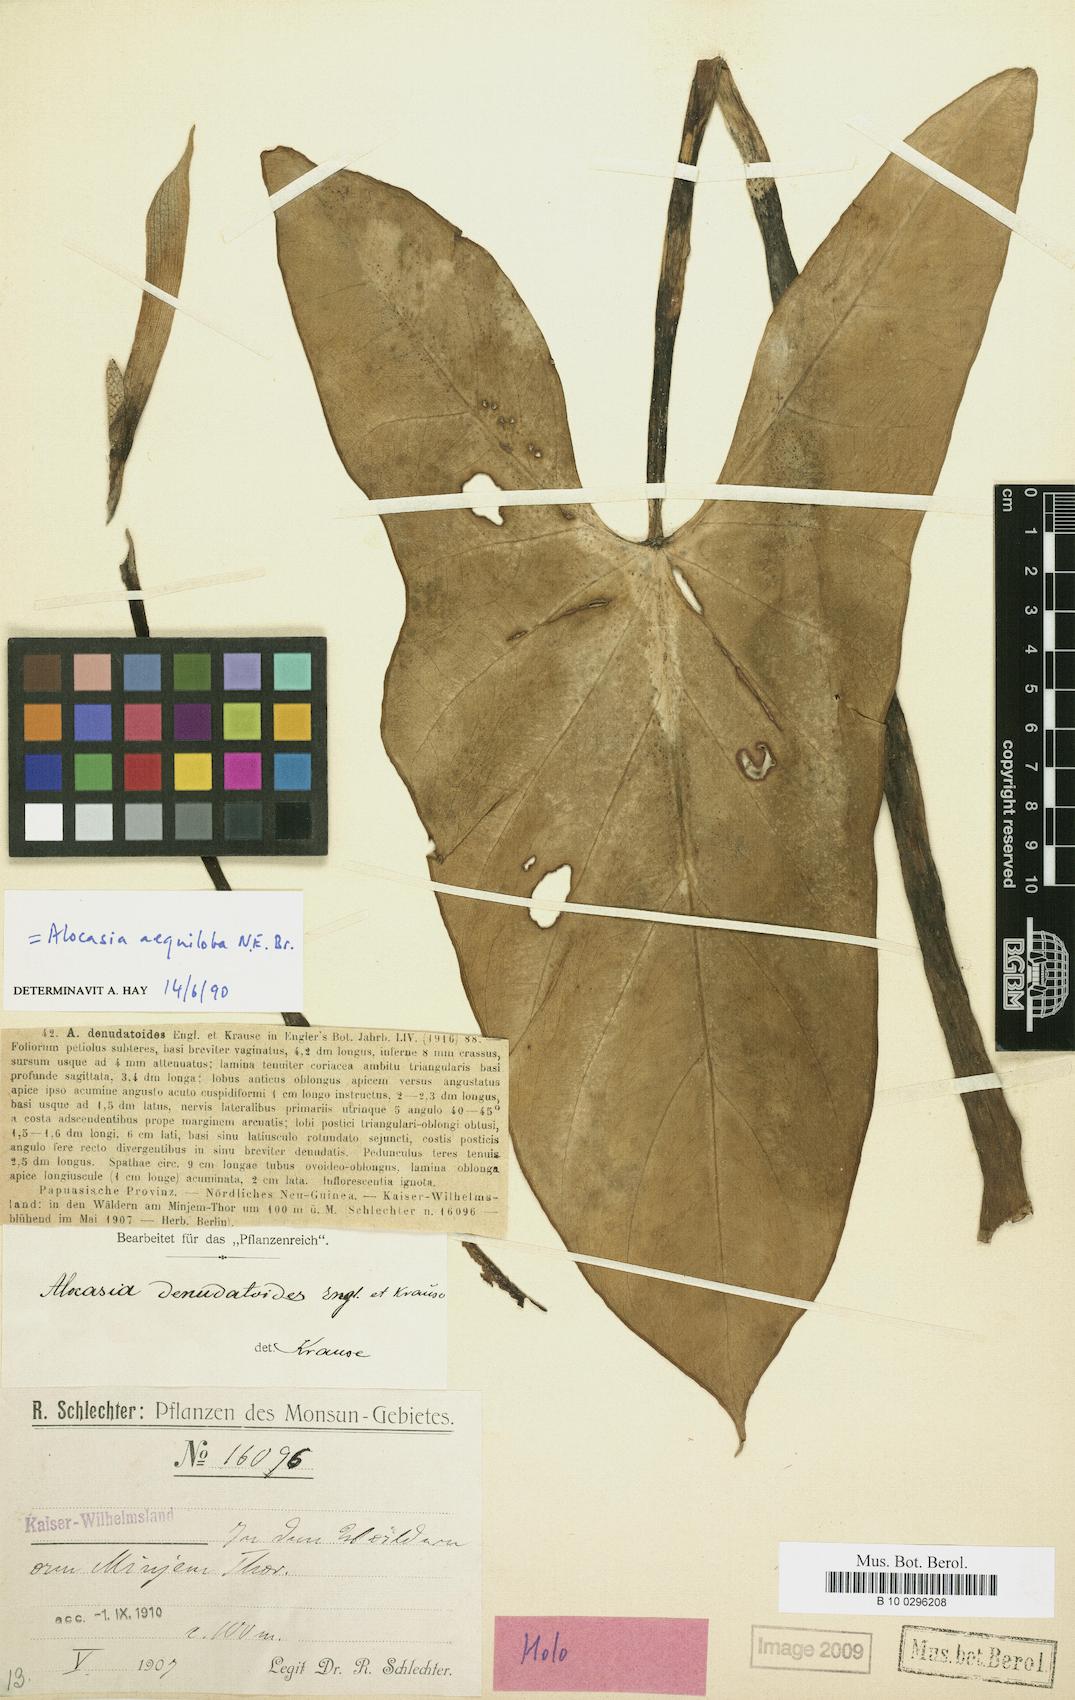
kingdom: Plantae
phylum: Tracheophyta
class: Liliopsida
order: Alismatales
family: Araceae
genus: Alocasia
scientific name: Alocasia aequiloba
